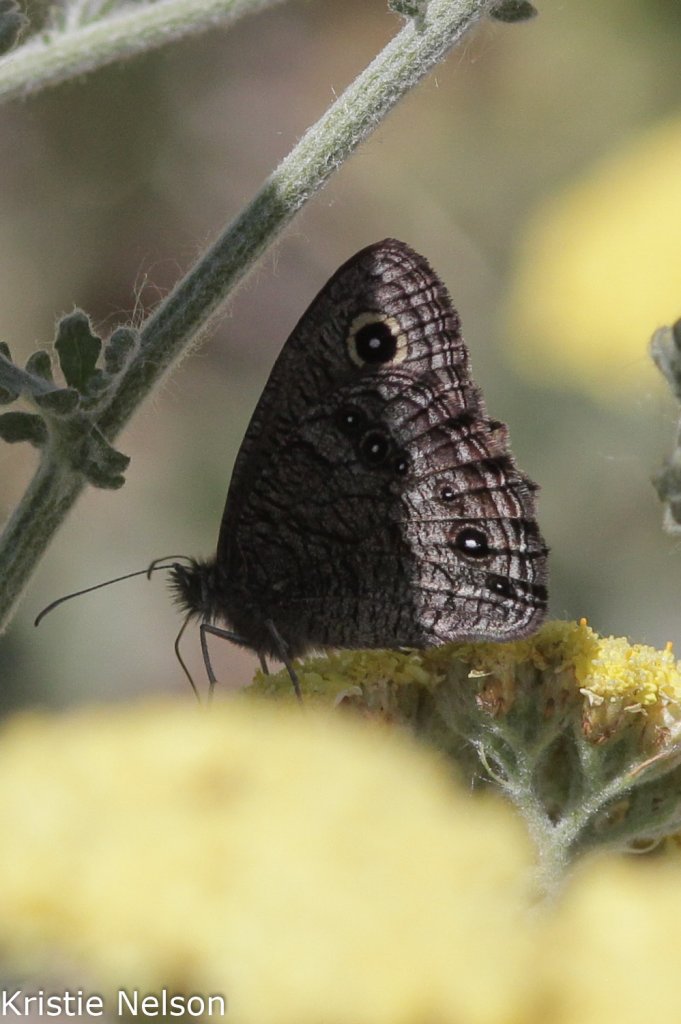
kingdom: Animalia
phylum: Arthropoda
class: Insecta
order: Lepidoptera
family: Nymphalidae
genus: Cercyonis
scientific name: Cercyonis sthenele
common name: Great Basin Wood-Nymph
